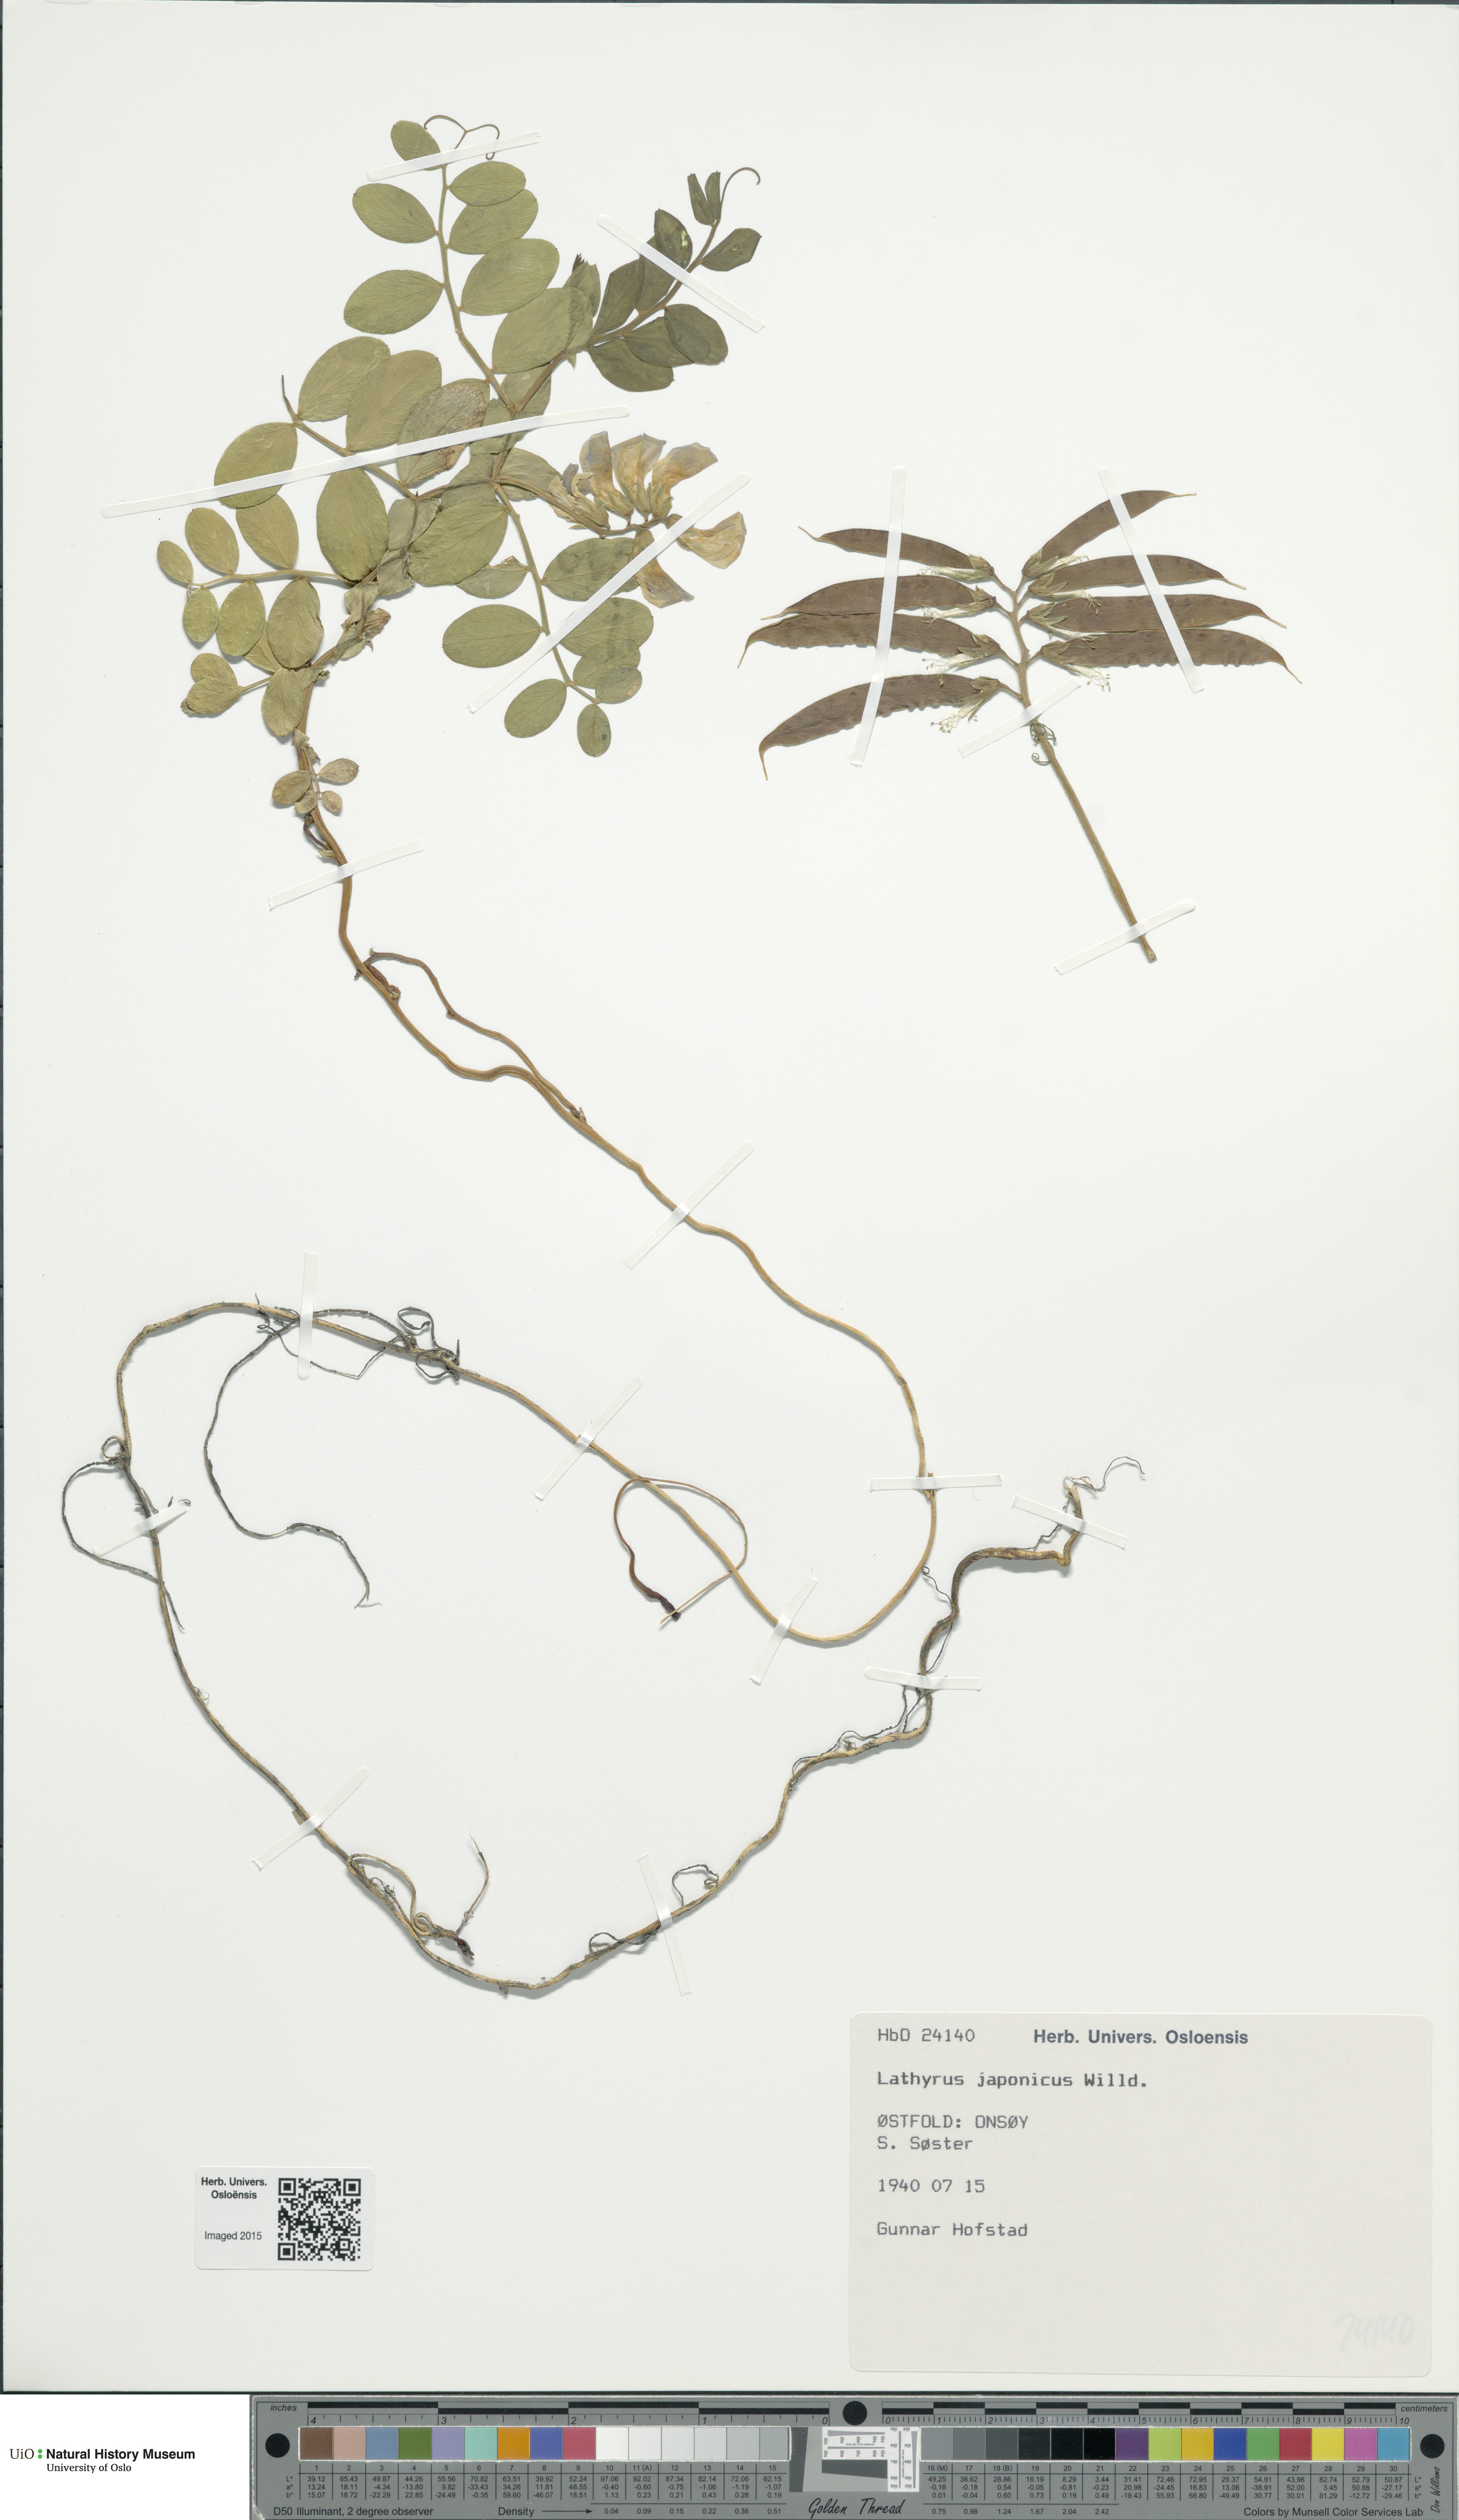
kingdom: Plantae
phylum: Tracheophyta
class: Magnoliopsida
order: Fabales
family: Fabaceae
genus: Lathyrus
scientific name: Lathyrus japonicus
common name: Sea pea
